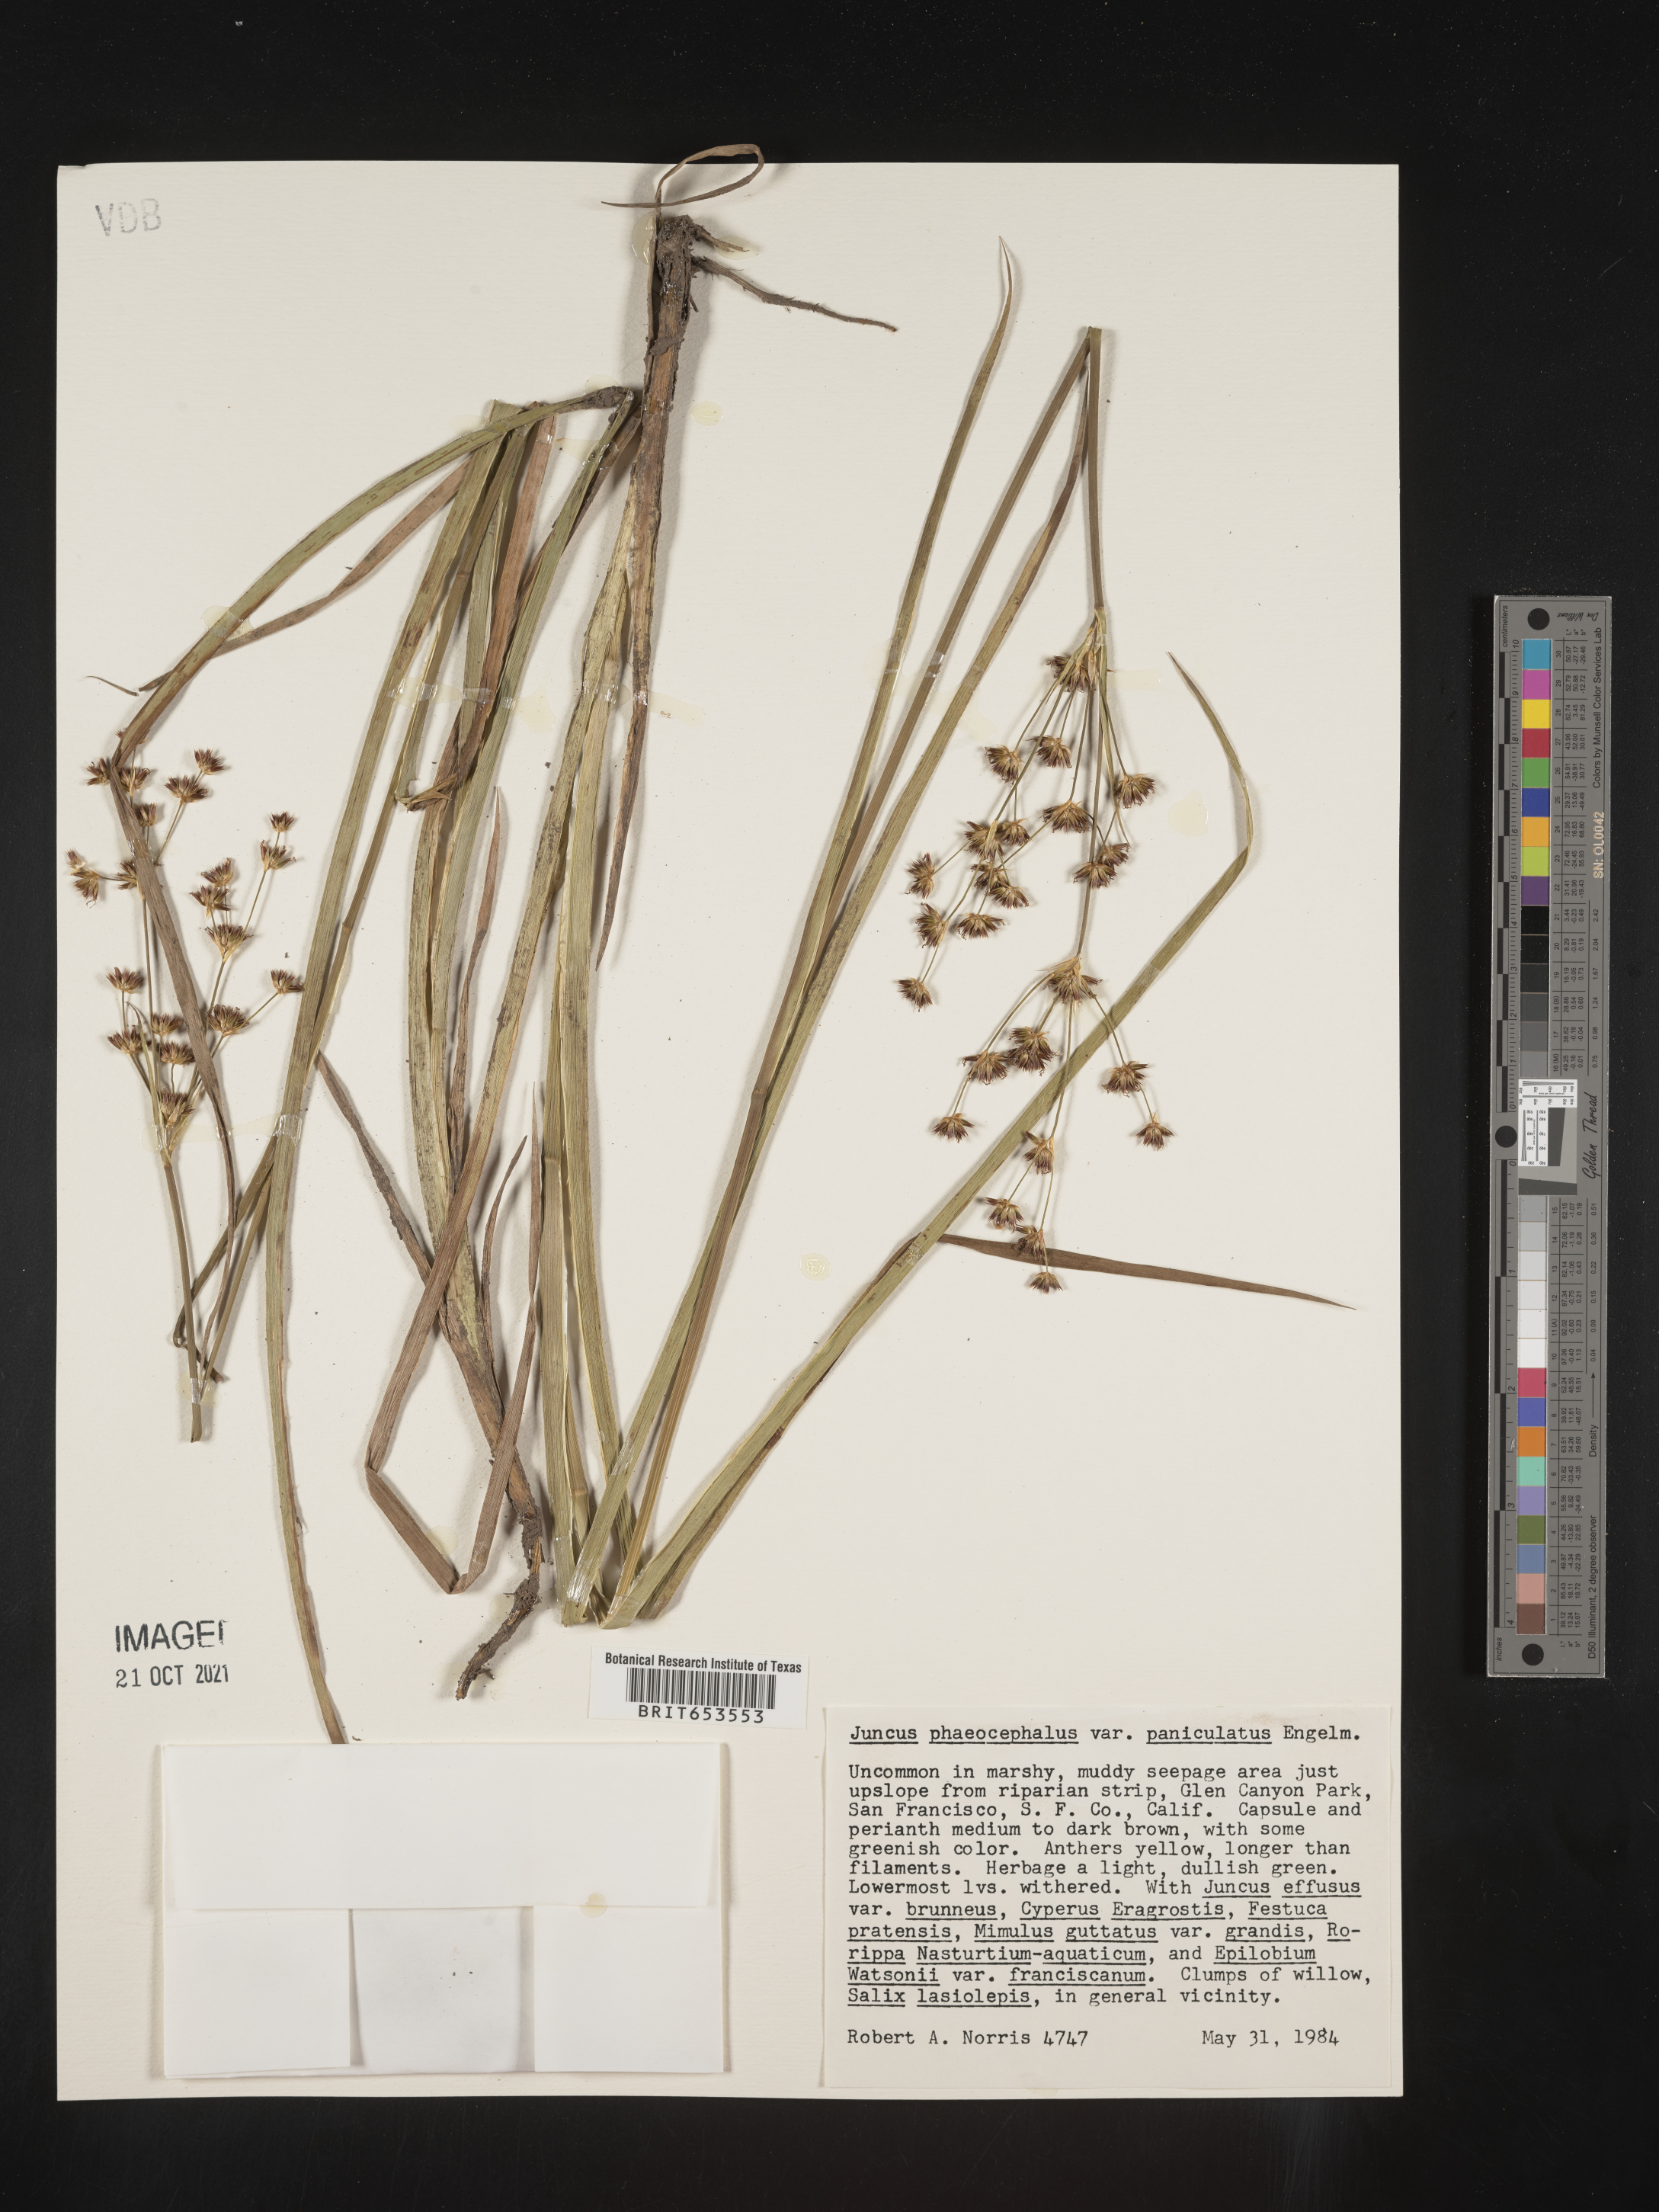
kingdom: Plantae
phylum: Tracheophyta
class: Liliopsida
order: Poales
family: Juncaceae
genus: Juncus
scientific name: Juncus phaeocephalus
